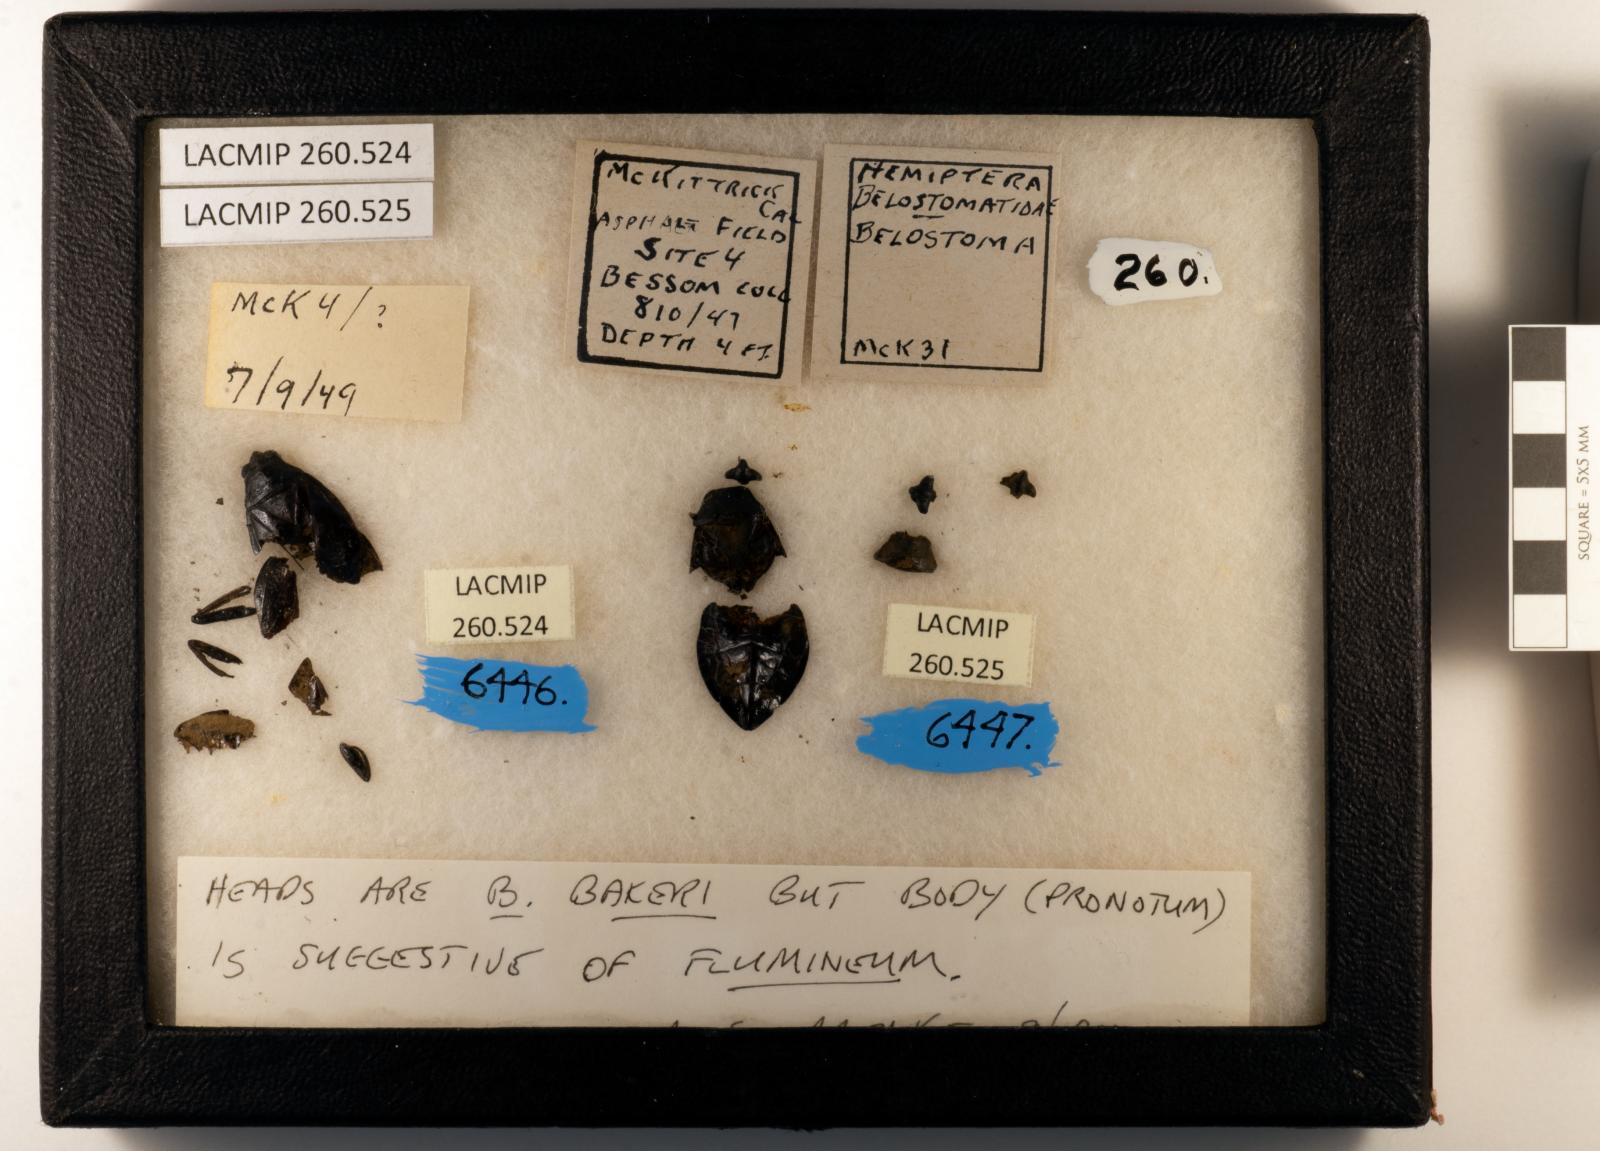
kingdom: Animalia
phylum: Arthropoda
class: Insecta
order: Hemiptera
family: Belostomatidae
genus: Belostoma
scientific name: Belostoma bakeri
